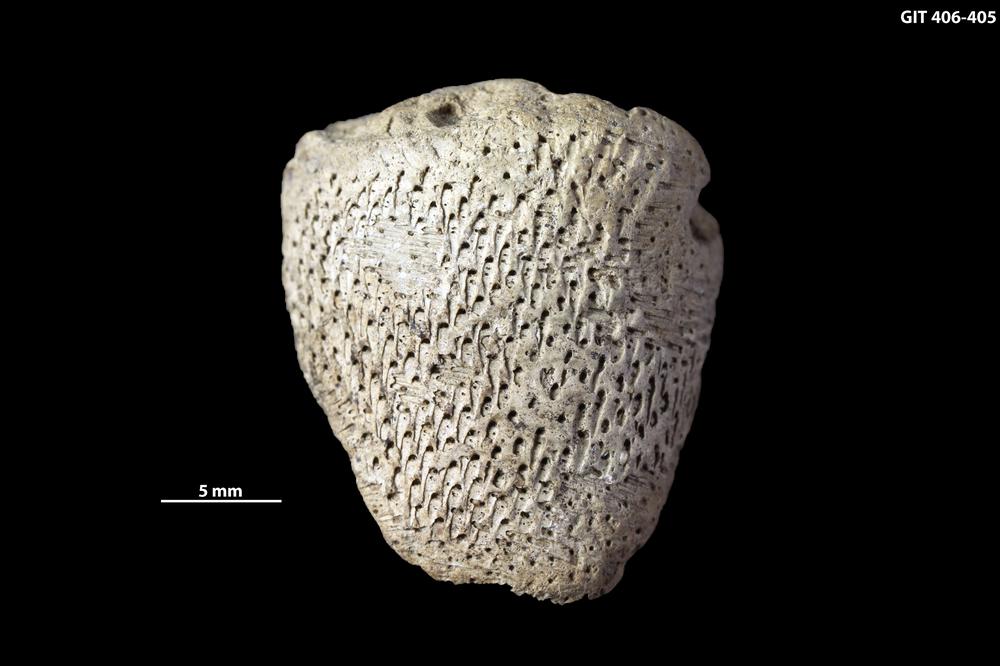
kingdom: Animalia
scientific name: Animalia
